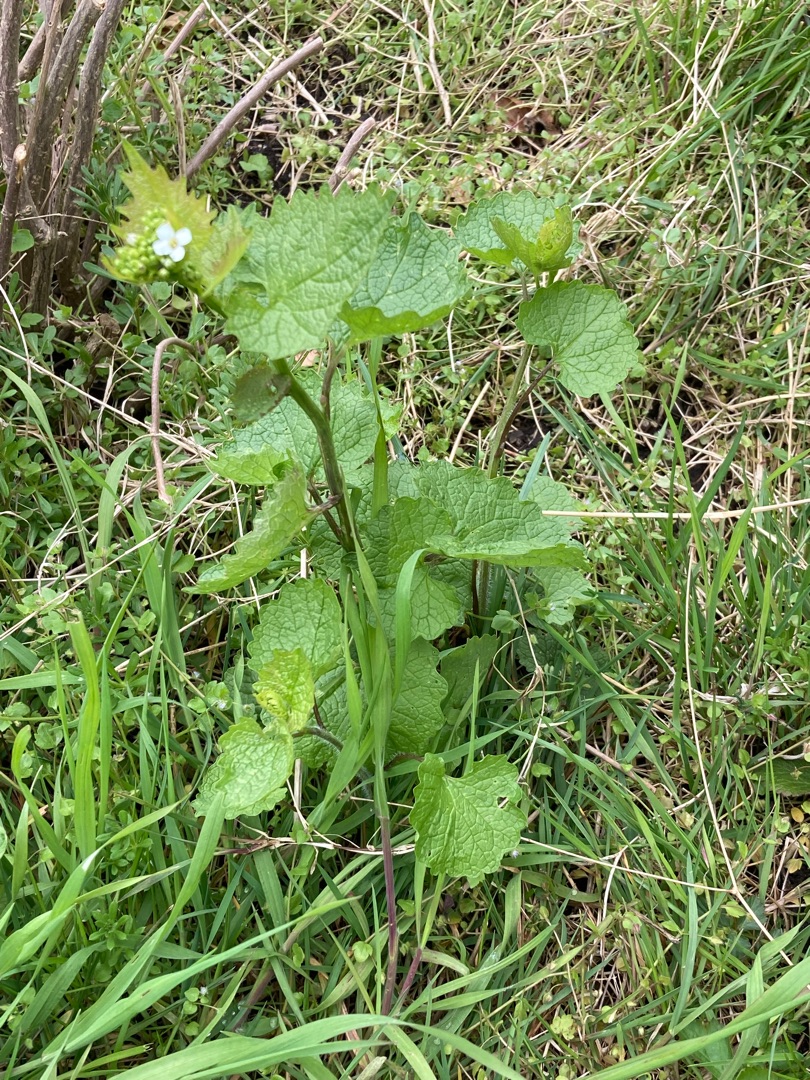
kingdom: Plantae
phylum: Tracheophyta
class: Magnoliopsida
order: Brassicales
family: Brassicaceae
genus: Alliaria
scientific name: Alliaria petiolata
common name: Løgkarse
